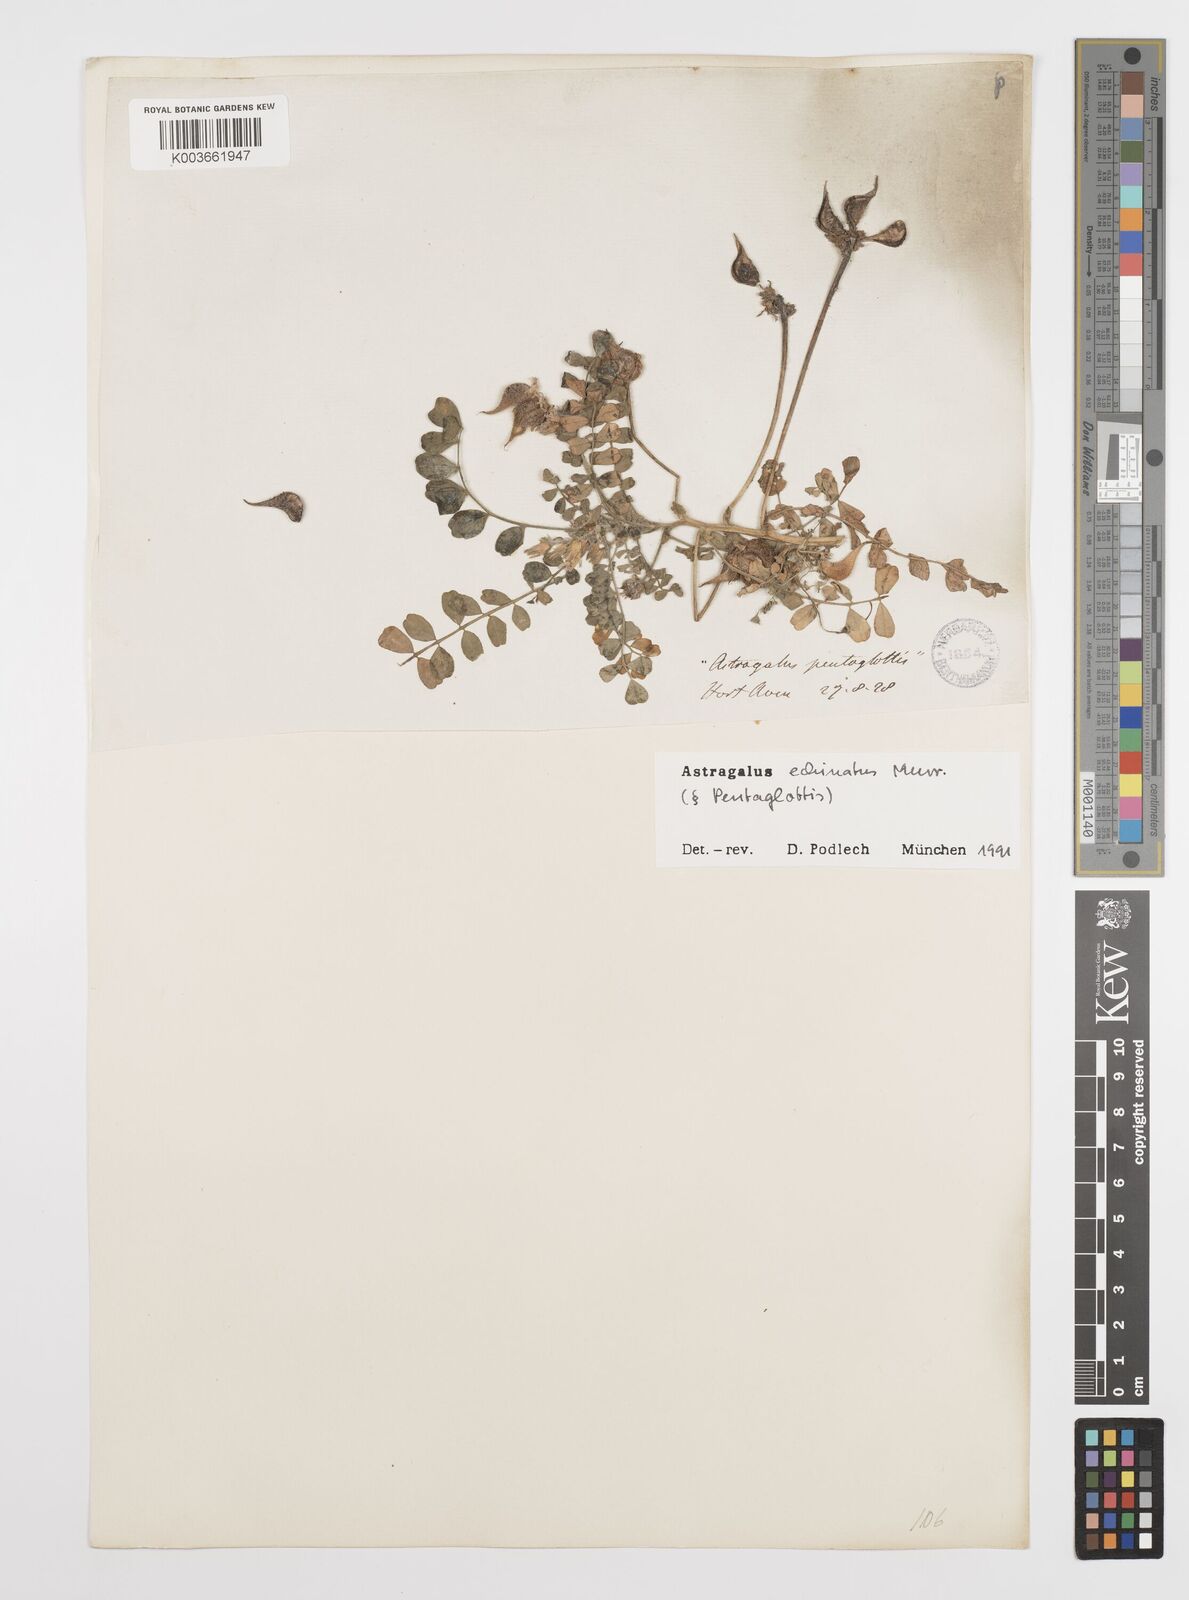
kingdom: Plantae
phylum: Tracheophyta
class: Magnoliopsida
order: Fabales
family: Fabaceae
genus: Astragalus
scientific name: Astragalus echinatus
